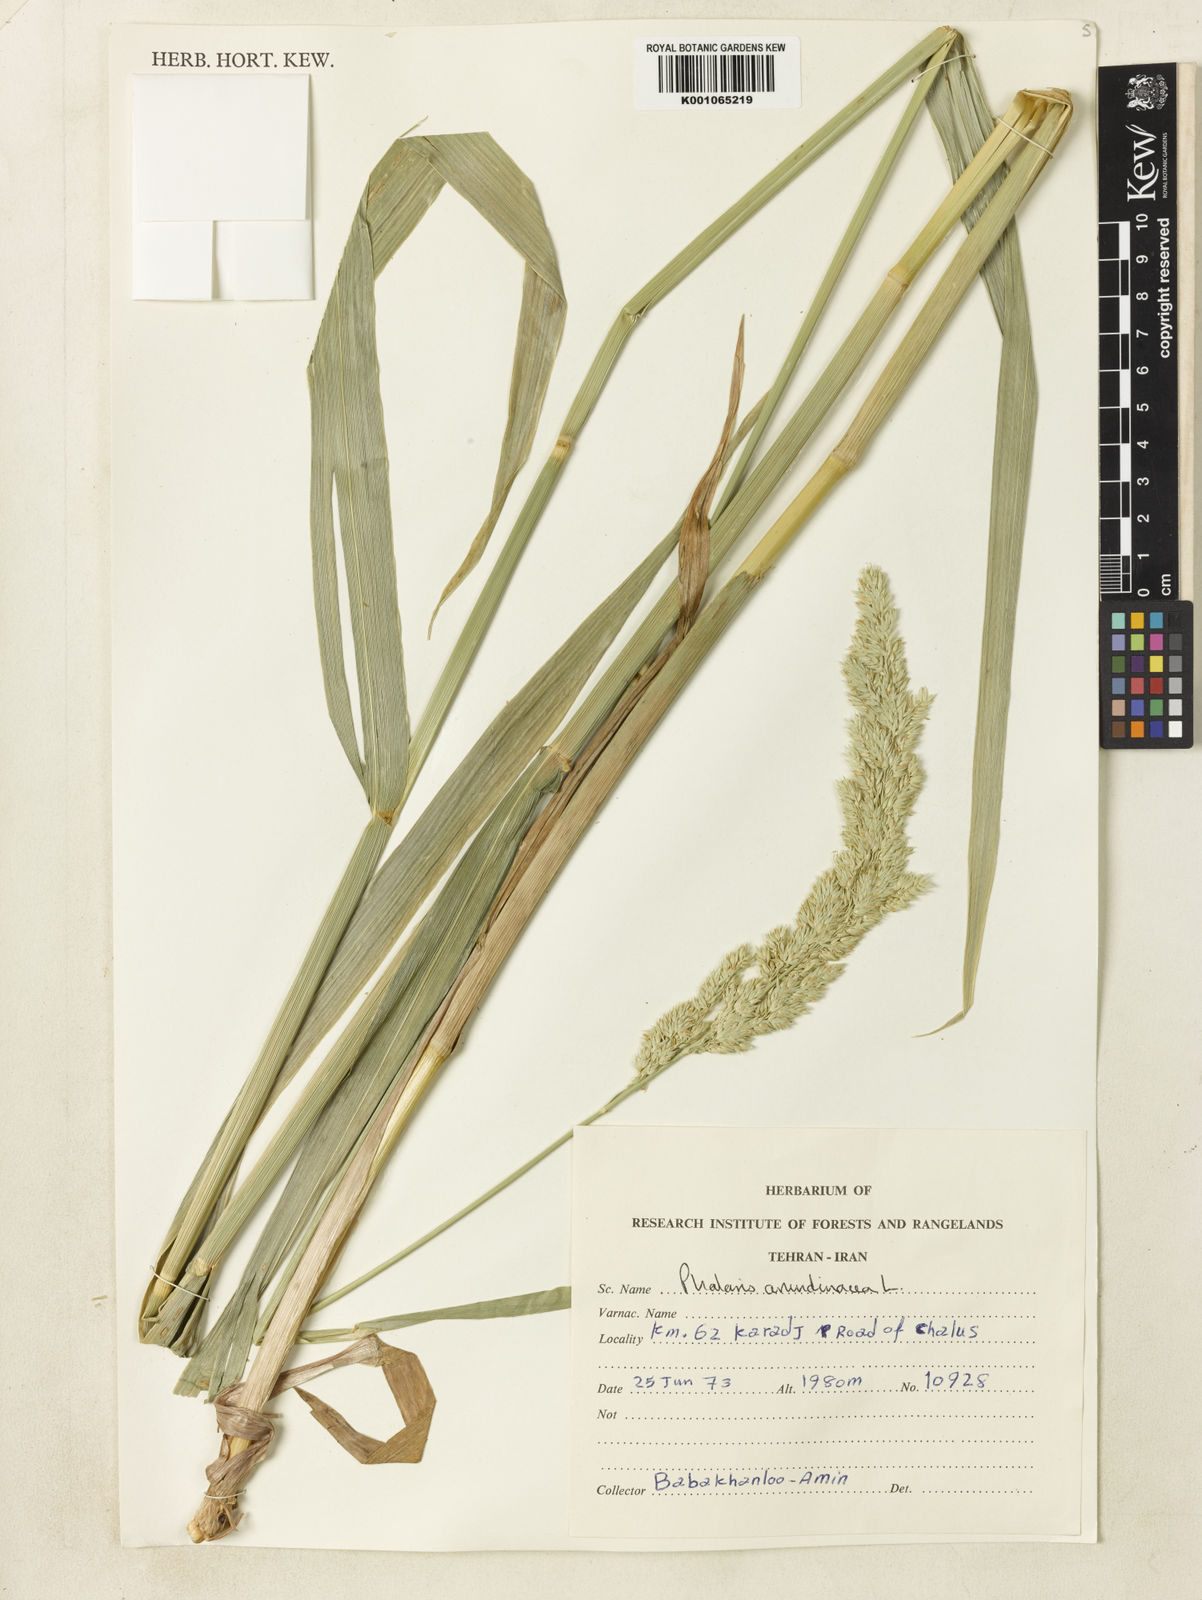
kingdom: Plantae
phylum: Tracheophyta
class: Liliopsida
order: Poales
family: Poaceae
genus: Phalaris
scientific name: Phalaris arundinacea
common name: Reed canary-grass
